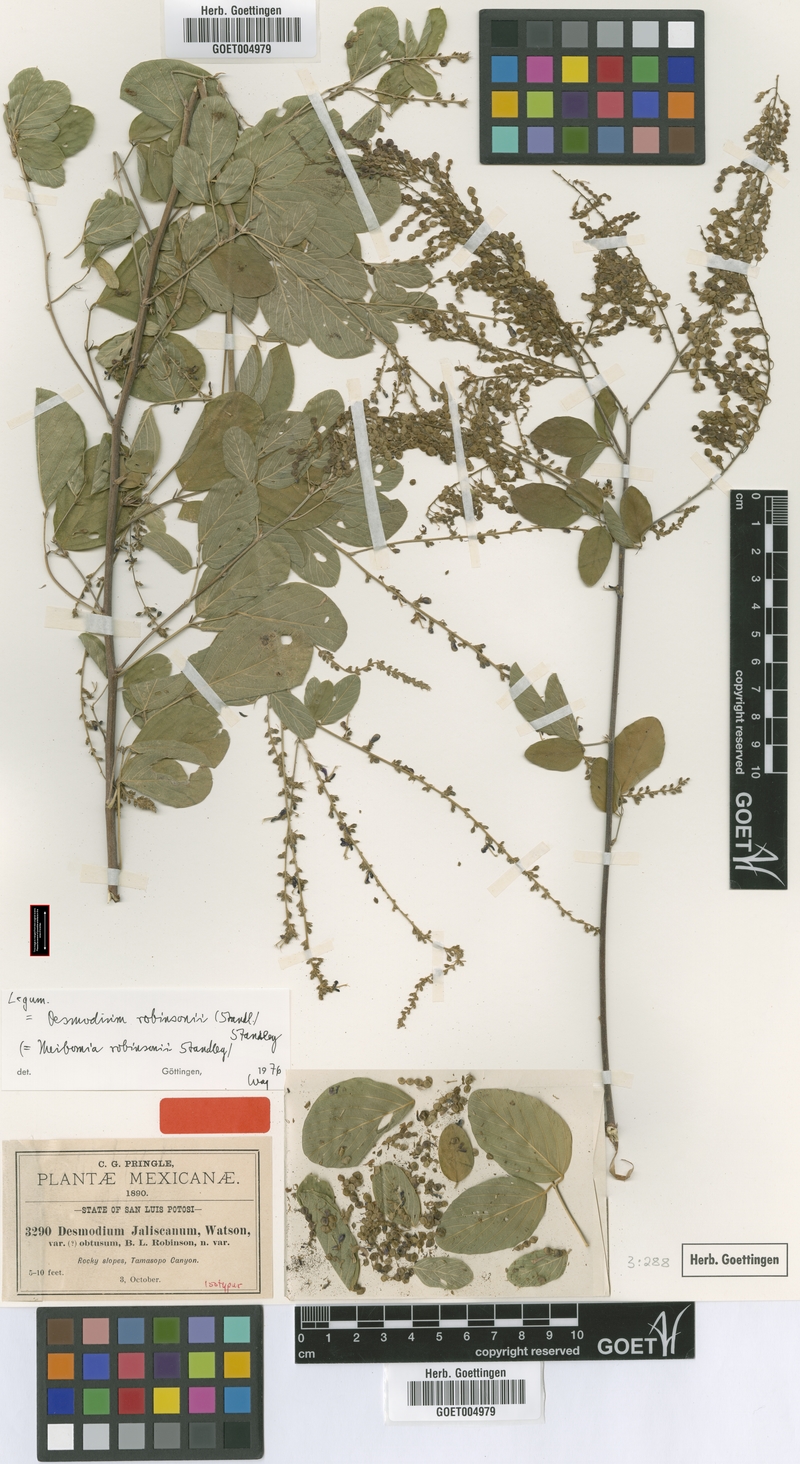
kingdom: Plantae
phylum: Tracheophyta
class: Magnoliopsida
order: Fabales
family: Fabaceae
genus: Desmodium
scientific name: Desmodium nicaraguense
